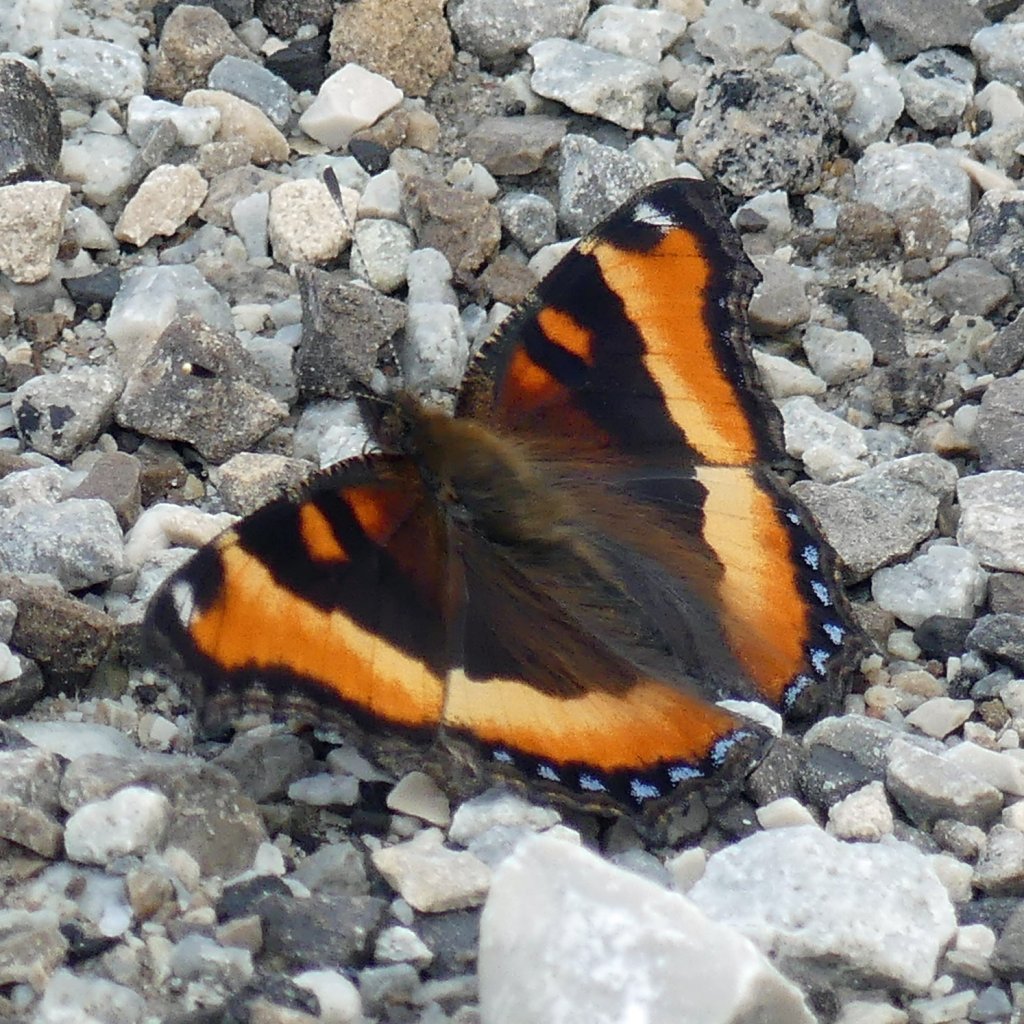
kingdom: Animalia
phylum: Arthropoda
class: Insecta
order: Lepidoptera
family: Nymphalidae
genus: Aglais
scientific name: Aglais milberti
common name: Milbert's Tortoiseshell
